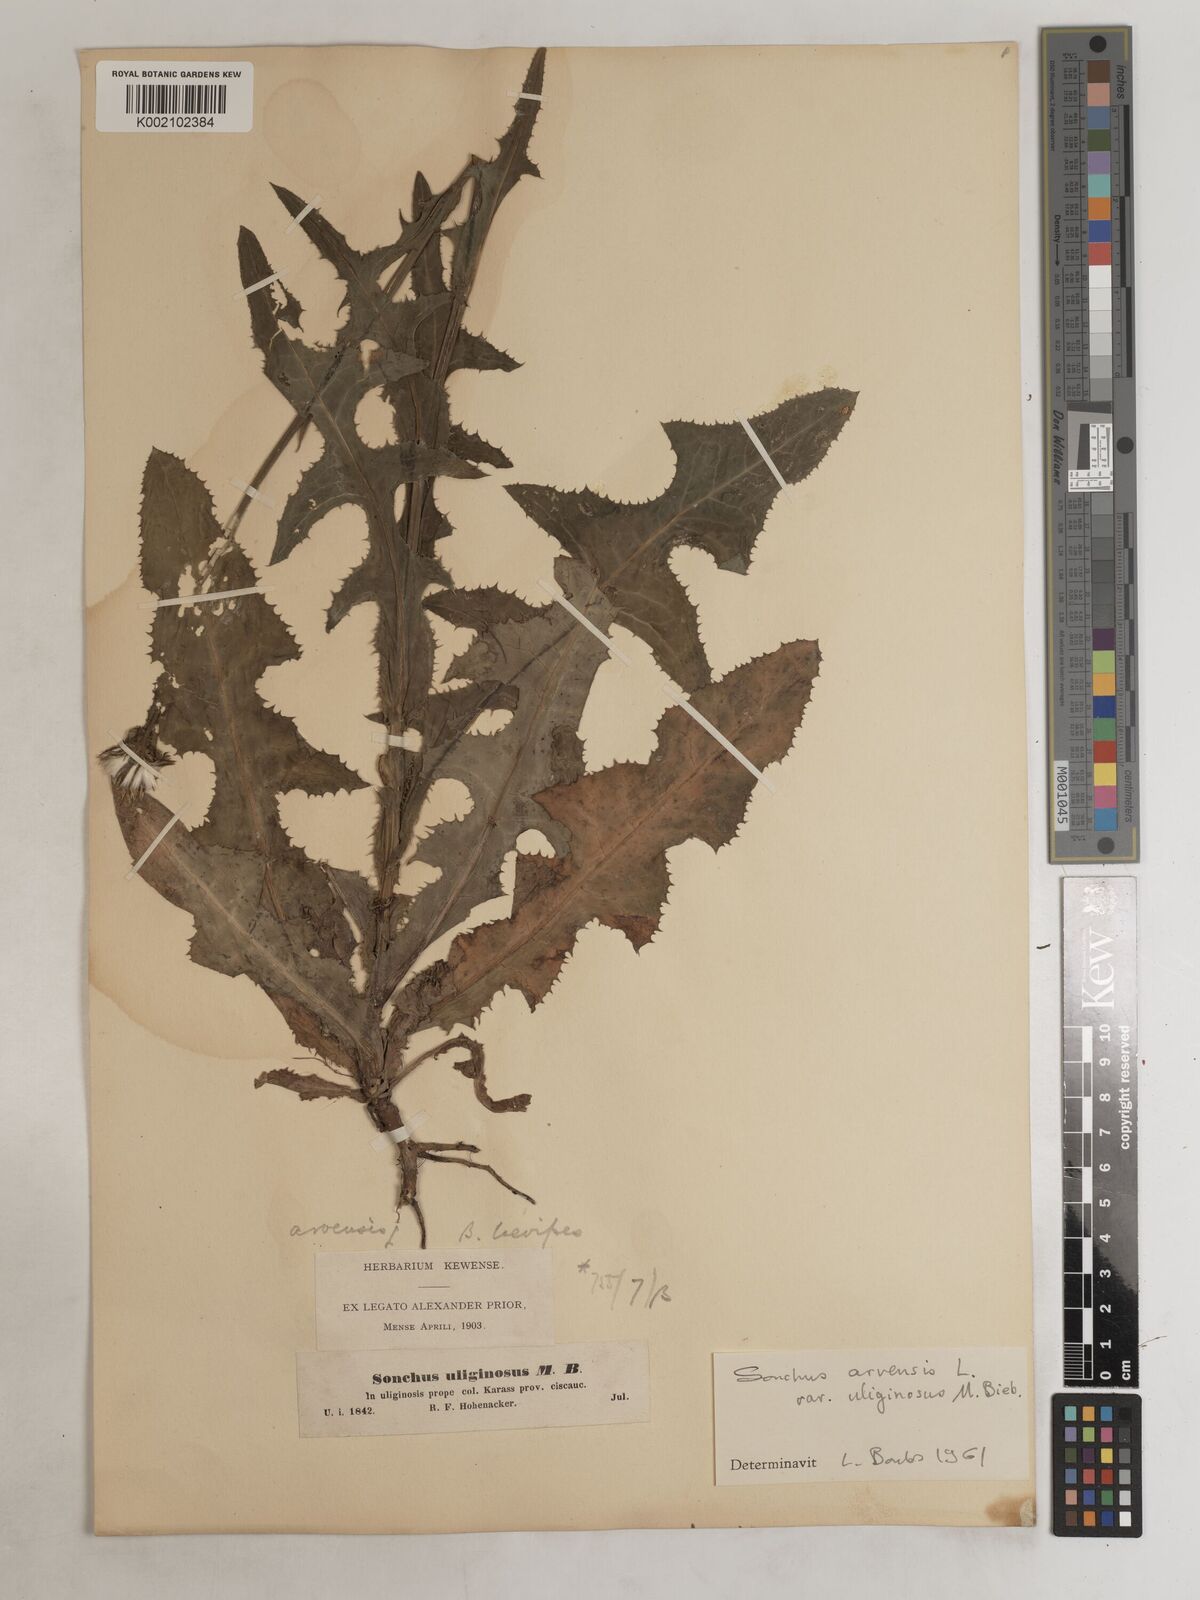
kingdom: Plantae
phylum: Tracheophyta
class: Magnoliopsida
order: Asterales
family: Asteraceae
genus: Sonchus
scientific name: Sonchus arvensis
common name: Perennial sow-thistle
